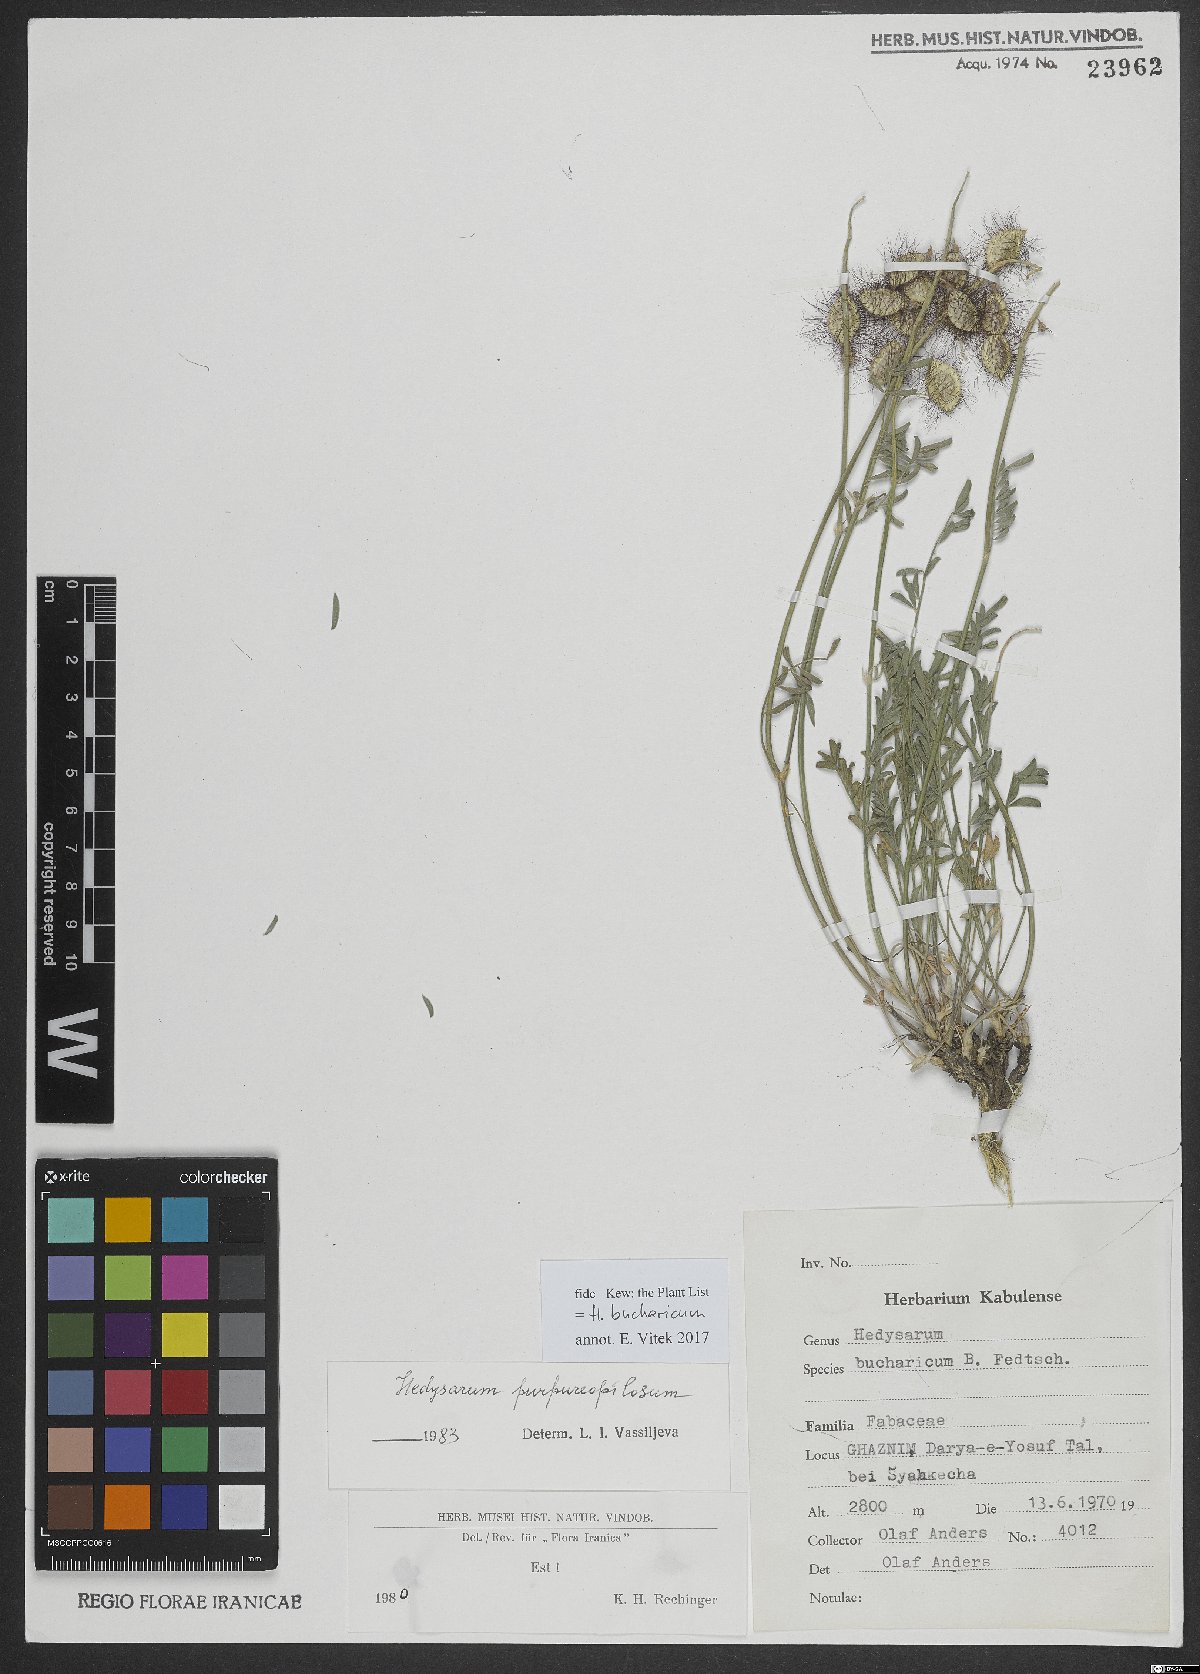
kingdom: Plantae
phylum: Tracheophyta
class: Magnoliopsida
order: Fabales
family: Fabaceae
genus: Hedysarum
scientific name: Hedysarum bucharicum
